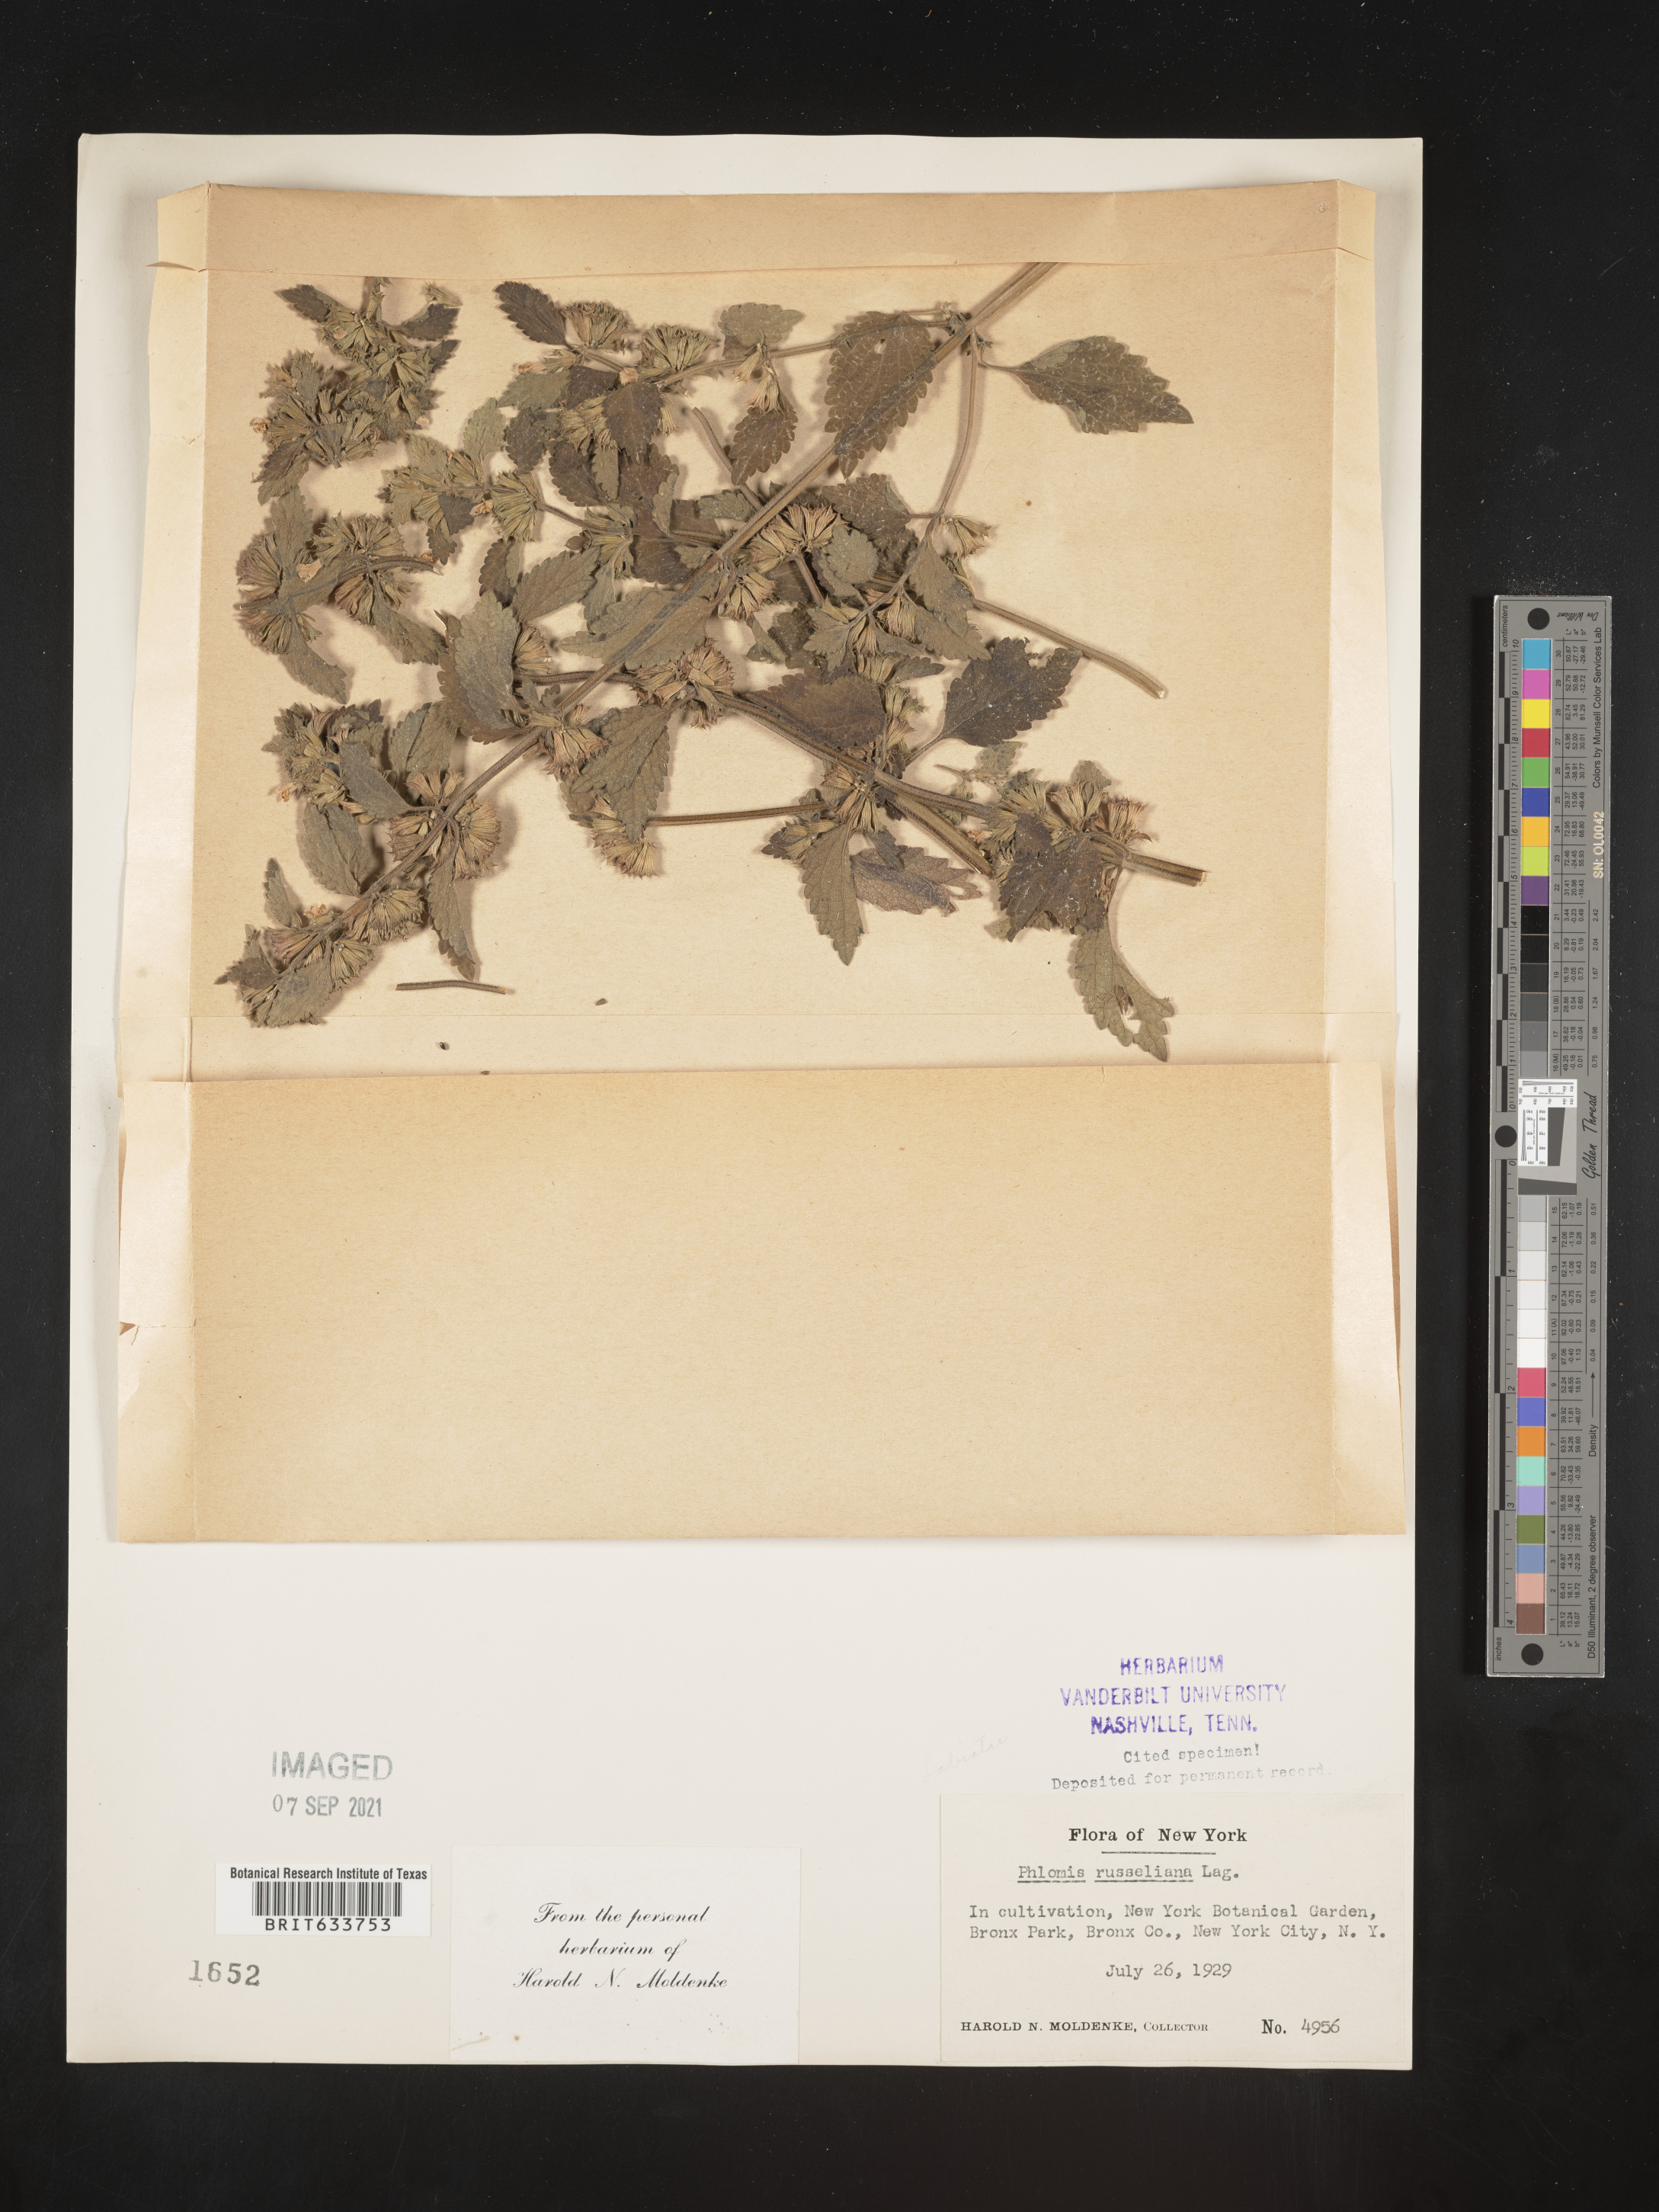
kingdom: Plantae
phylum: Tracheophyta
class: Magnoliopsida
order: Lamiales
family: Lamiaceae
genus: Phlomis
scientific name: Phlomis
